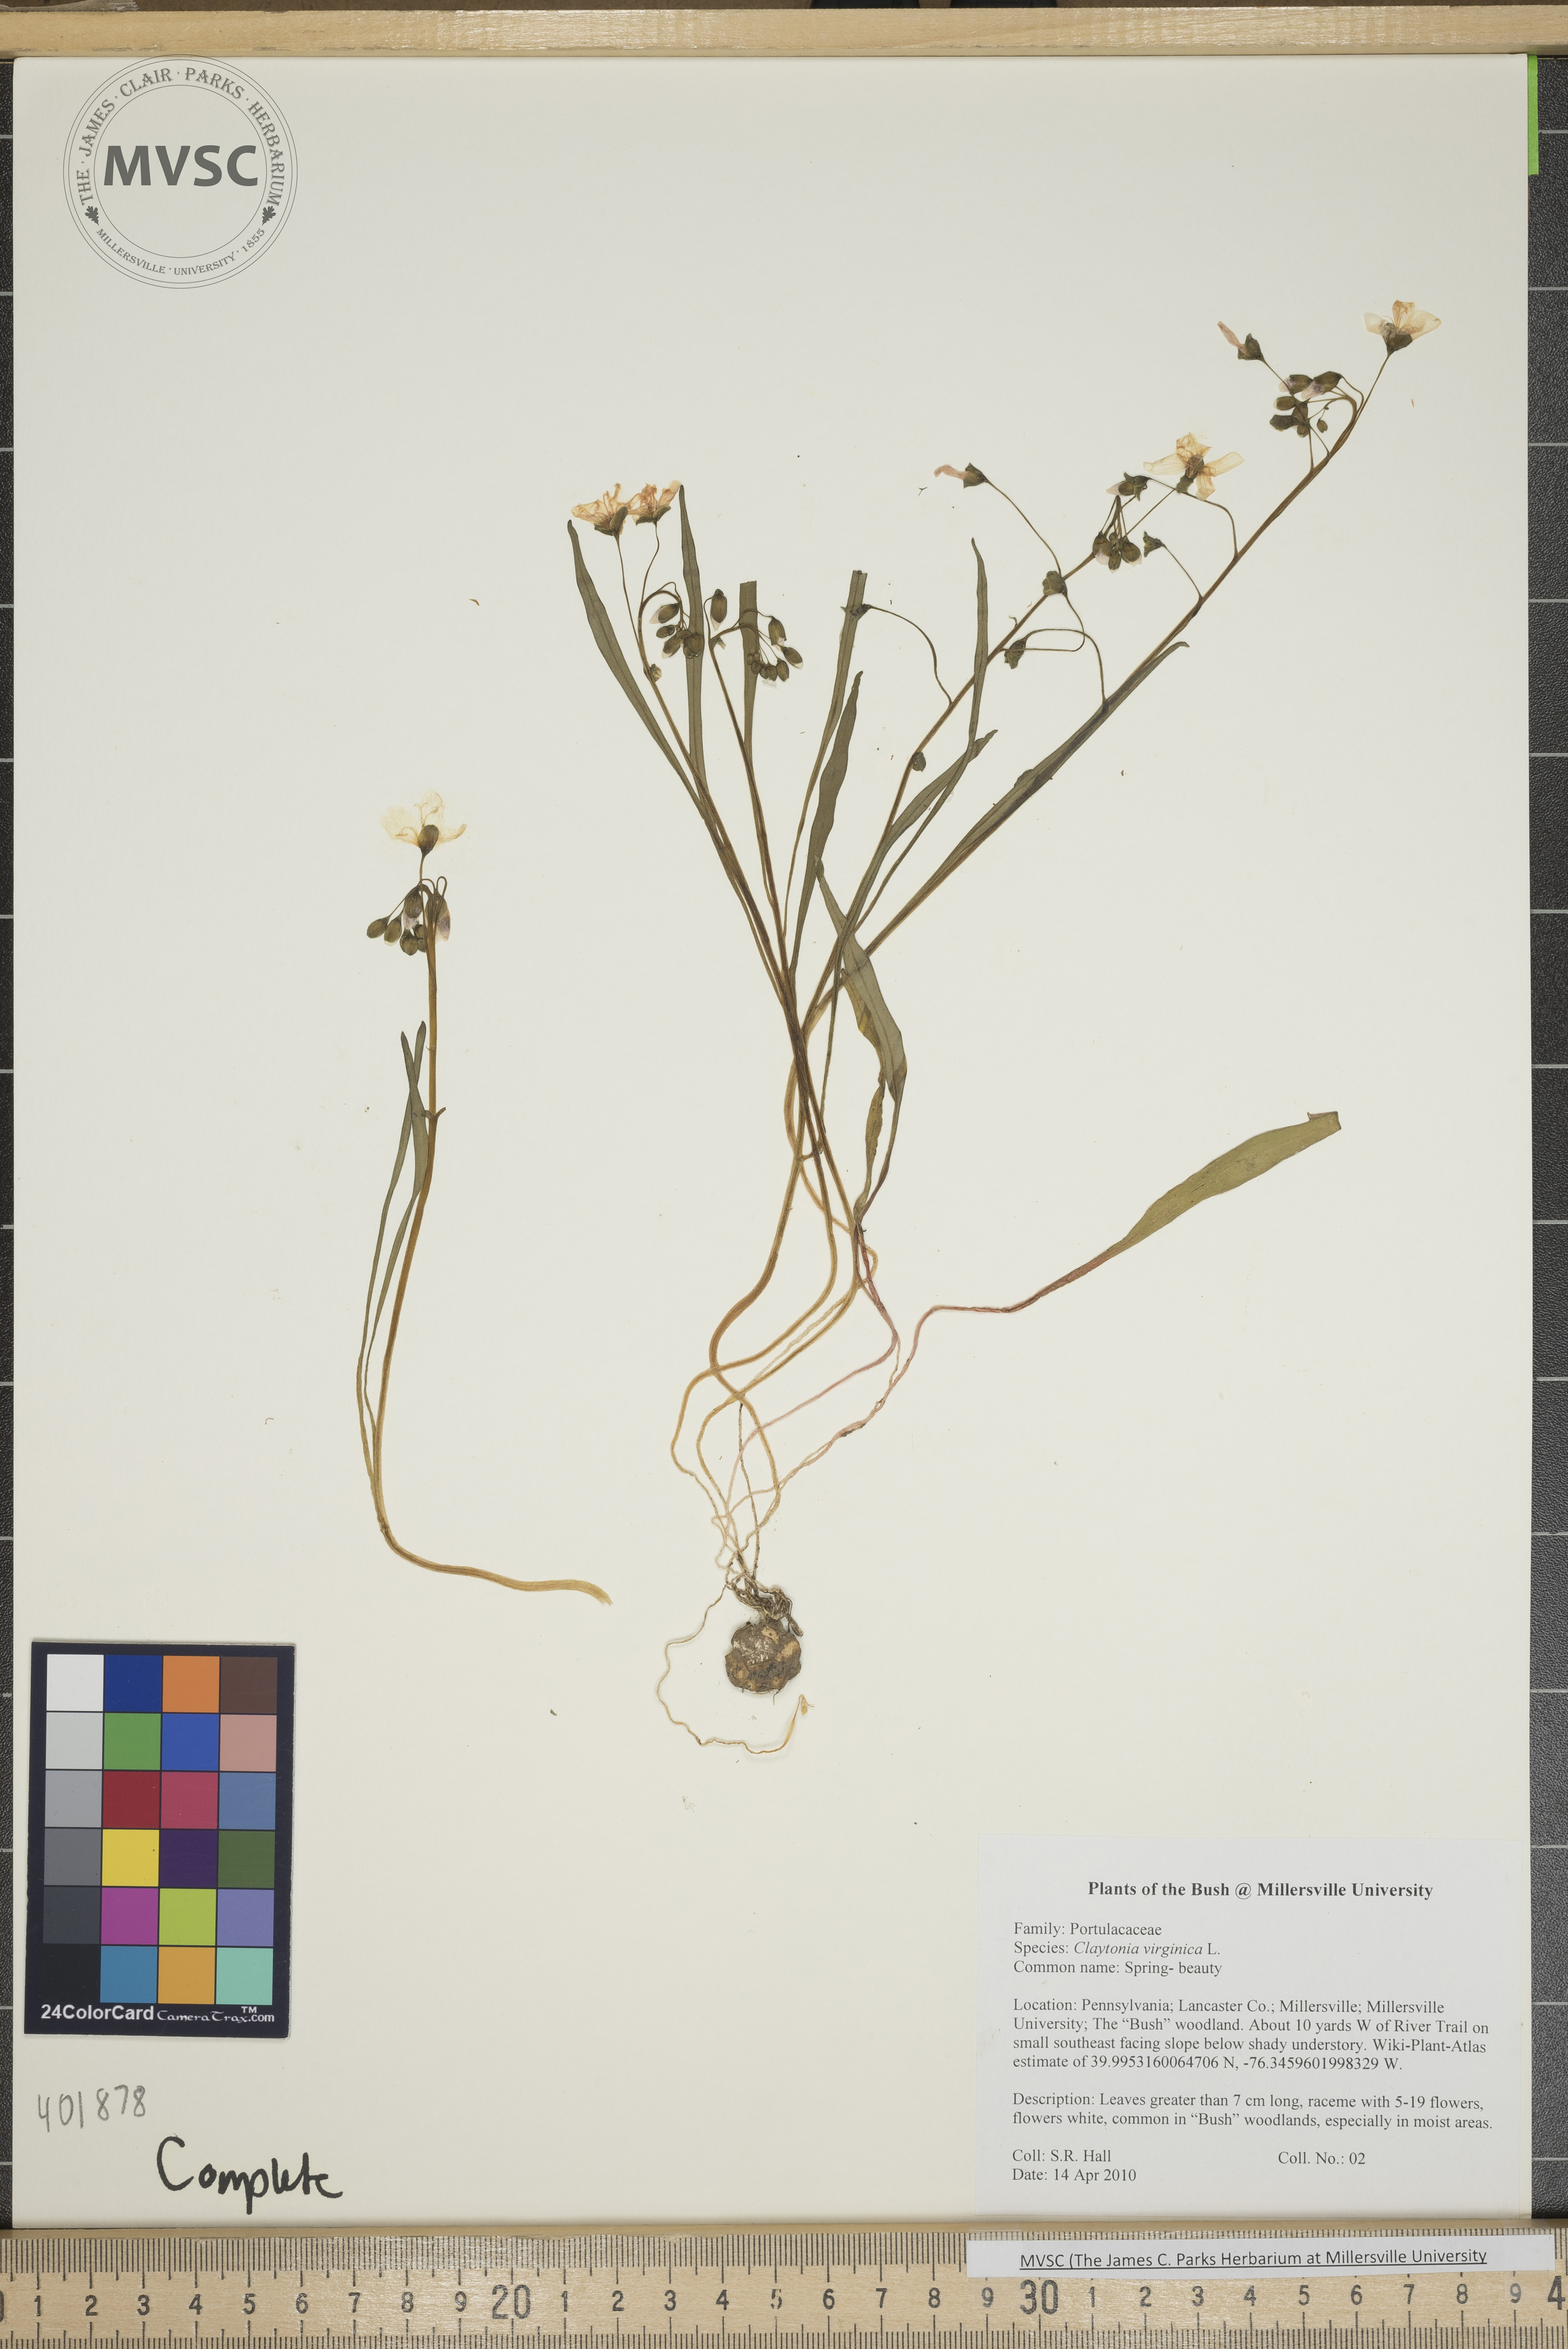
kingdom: Plantae
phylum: Tracheophyta
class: Magnoliopsida
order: Caryophyllales
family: Montiaceae
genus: Claytonia
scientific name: Claytonia virginica
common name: Spring beauty
